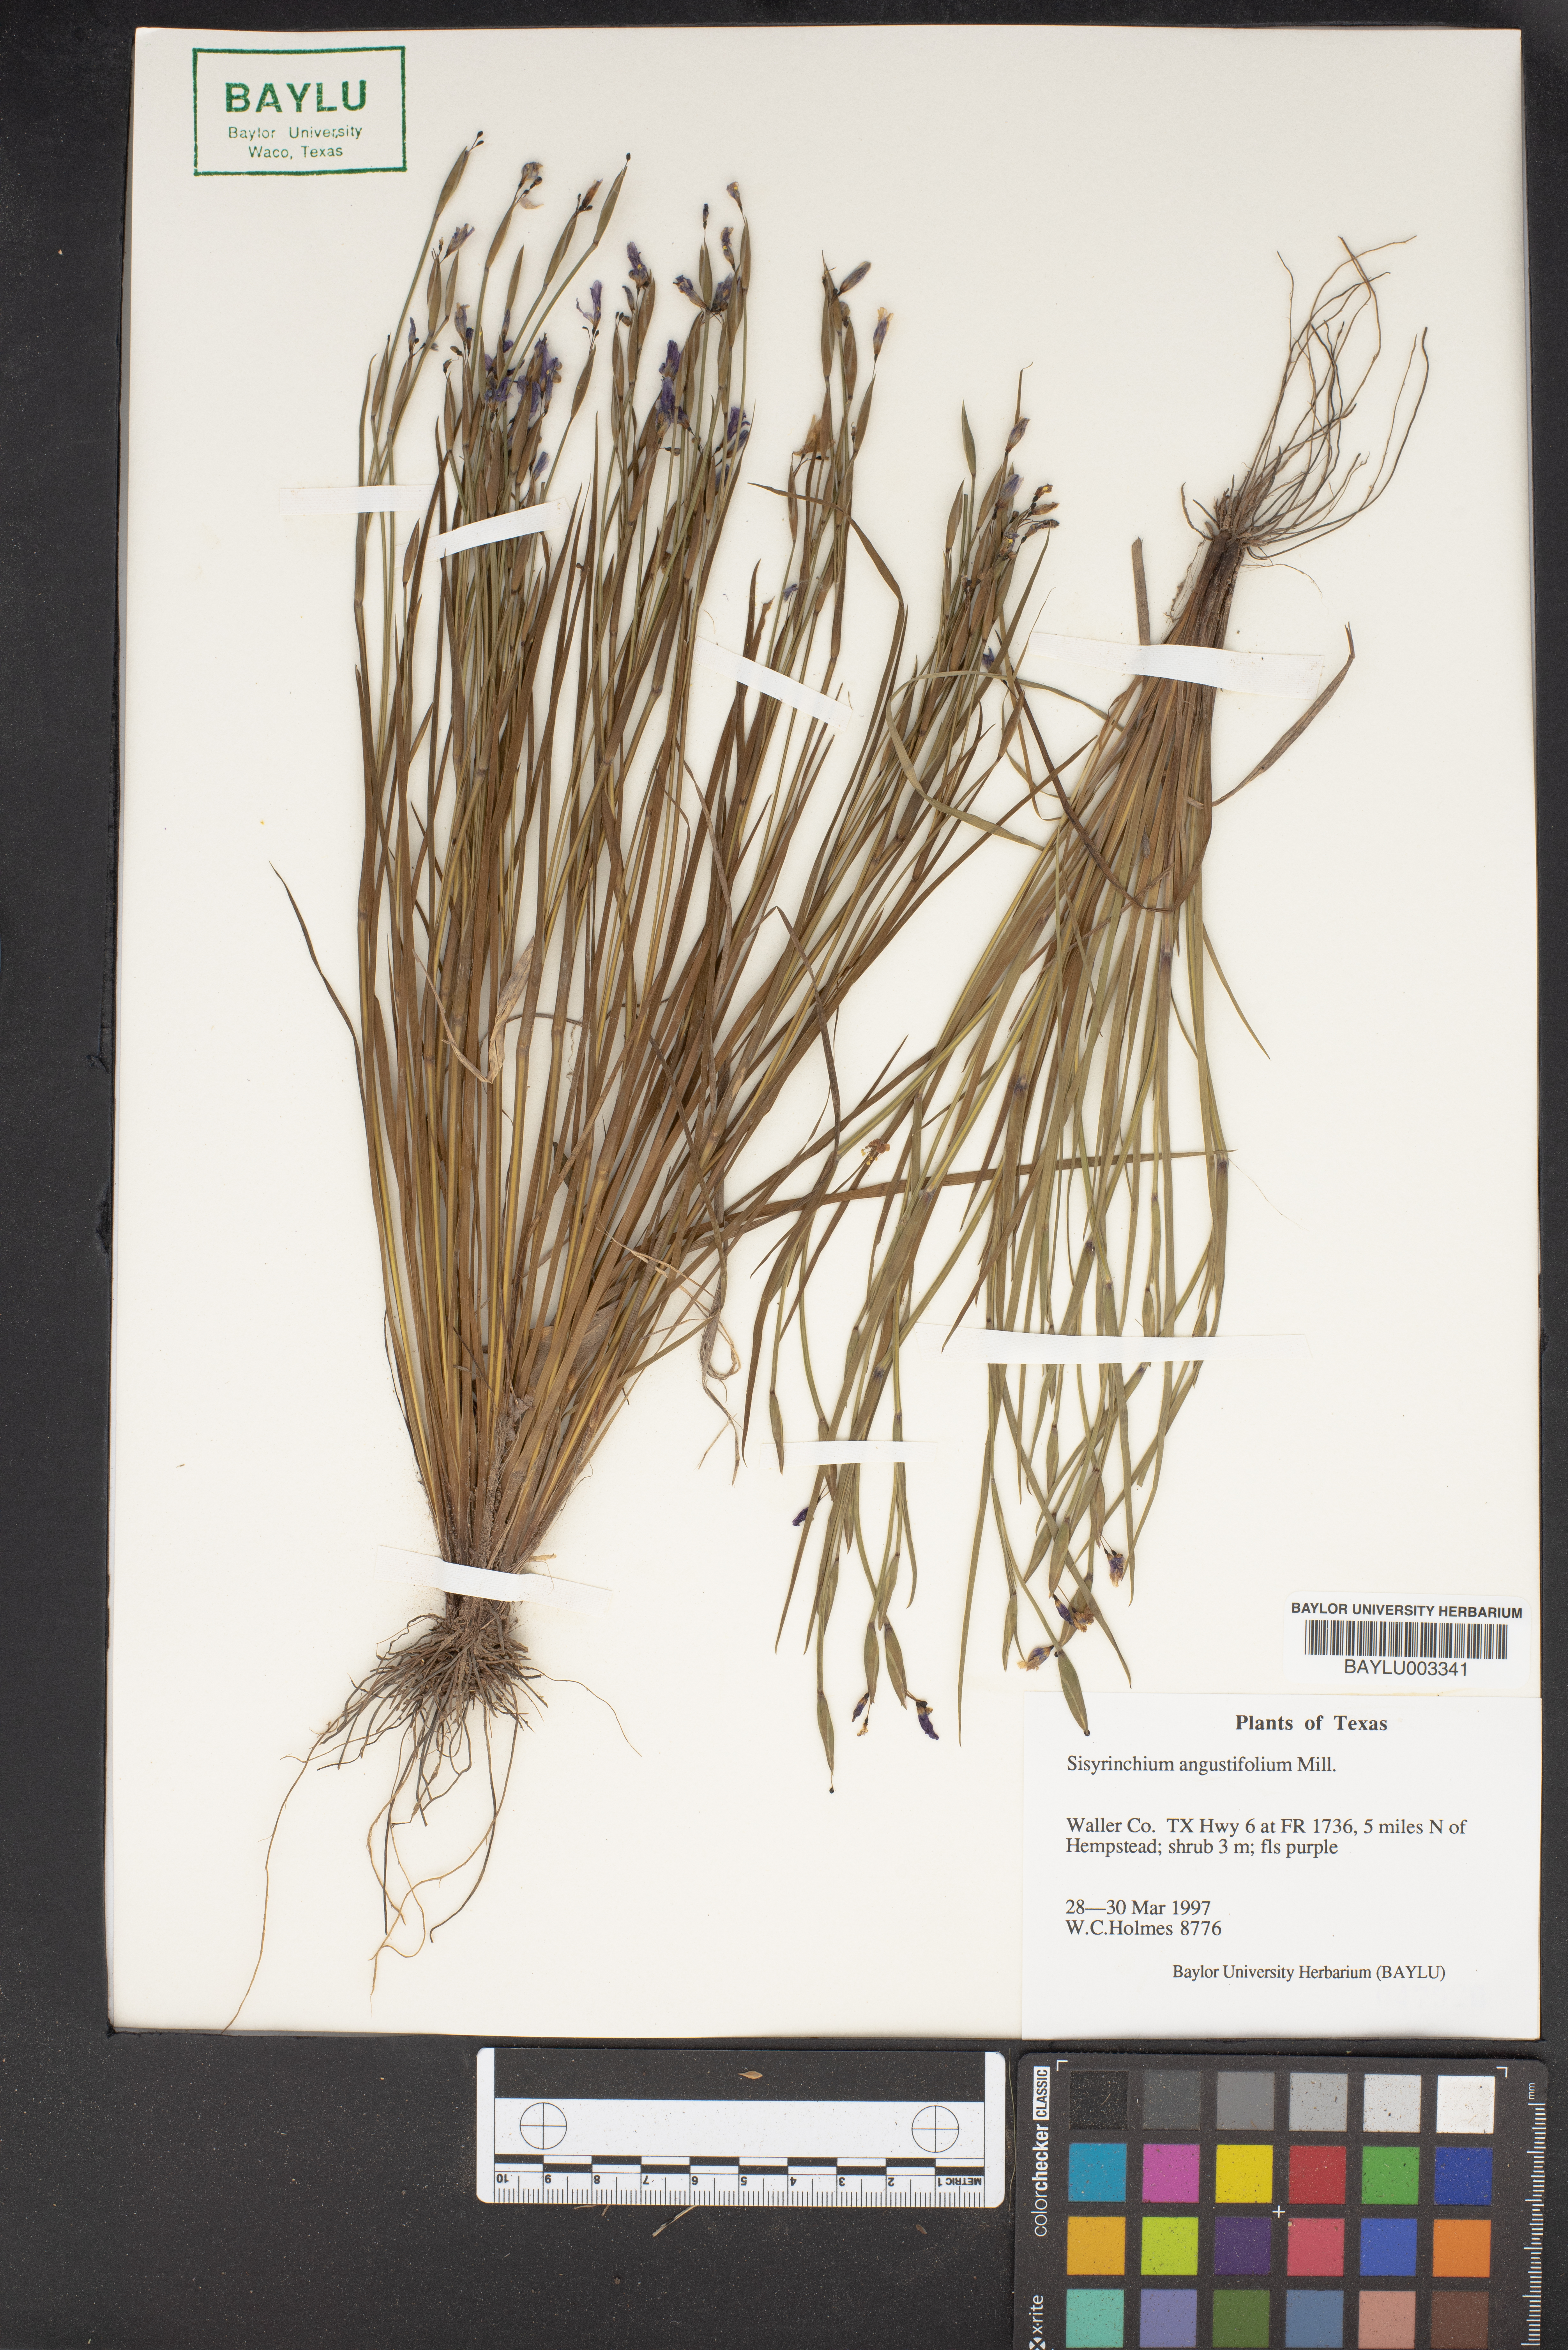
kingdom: Plantae
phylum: Tracheophyta
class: Liliopsida
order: Asparagales
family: Iridaceae
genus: Sisyrinchium
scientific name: Sisyrinchium angustifolium
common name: Narrow-leaf blue-eyed-grass
